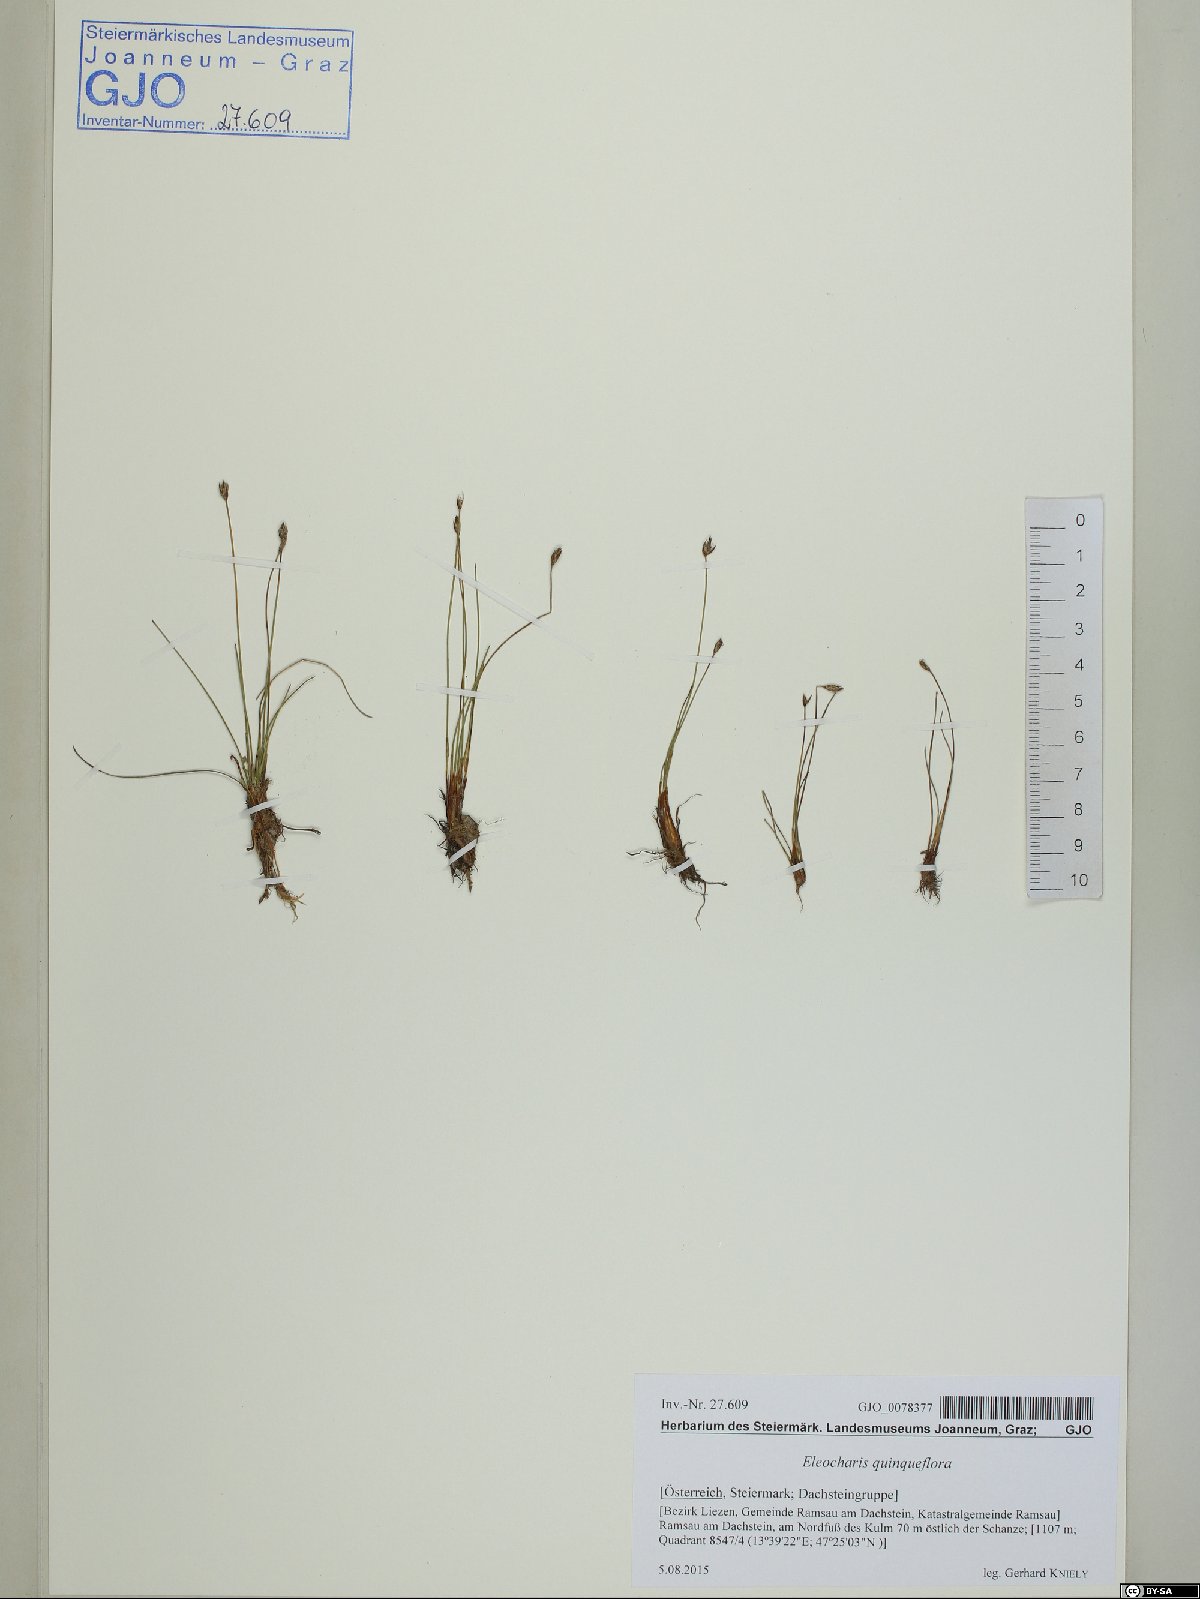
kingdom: Plantae
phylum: Tracheophyta
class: Liliopsida
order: Poales
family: Cyperaceae
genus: Eleocharis
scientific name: Eleocharis quinqueflora
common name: Few-flowered spike-rush
